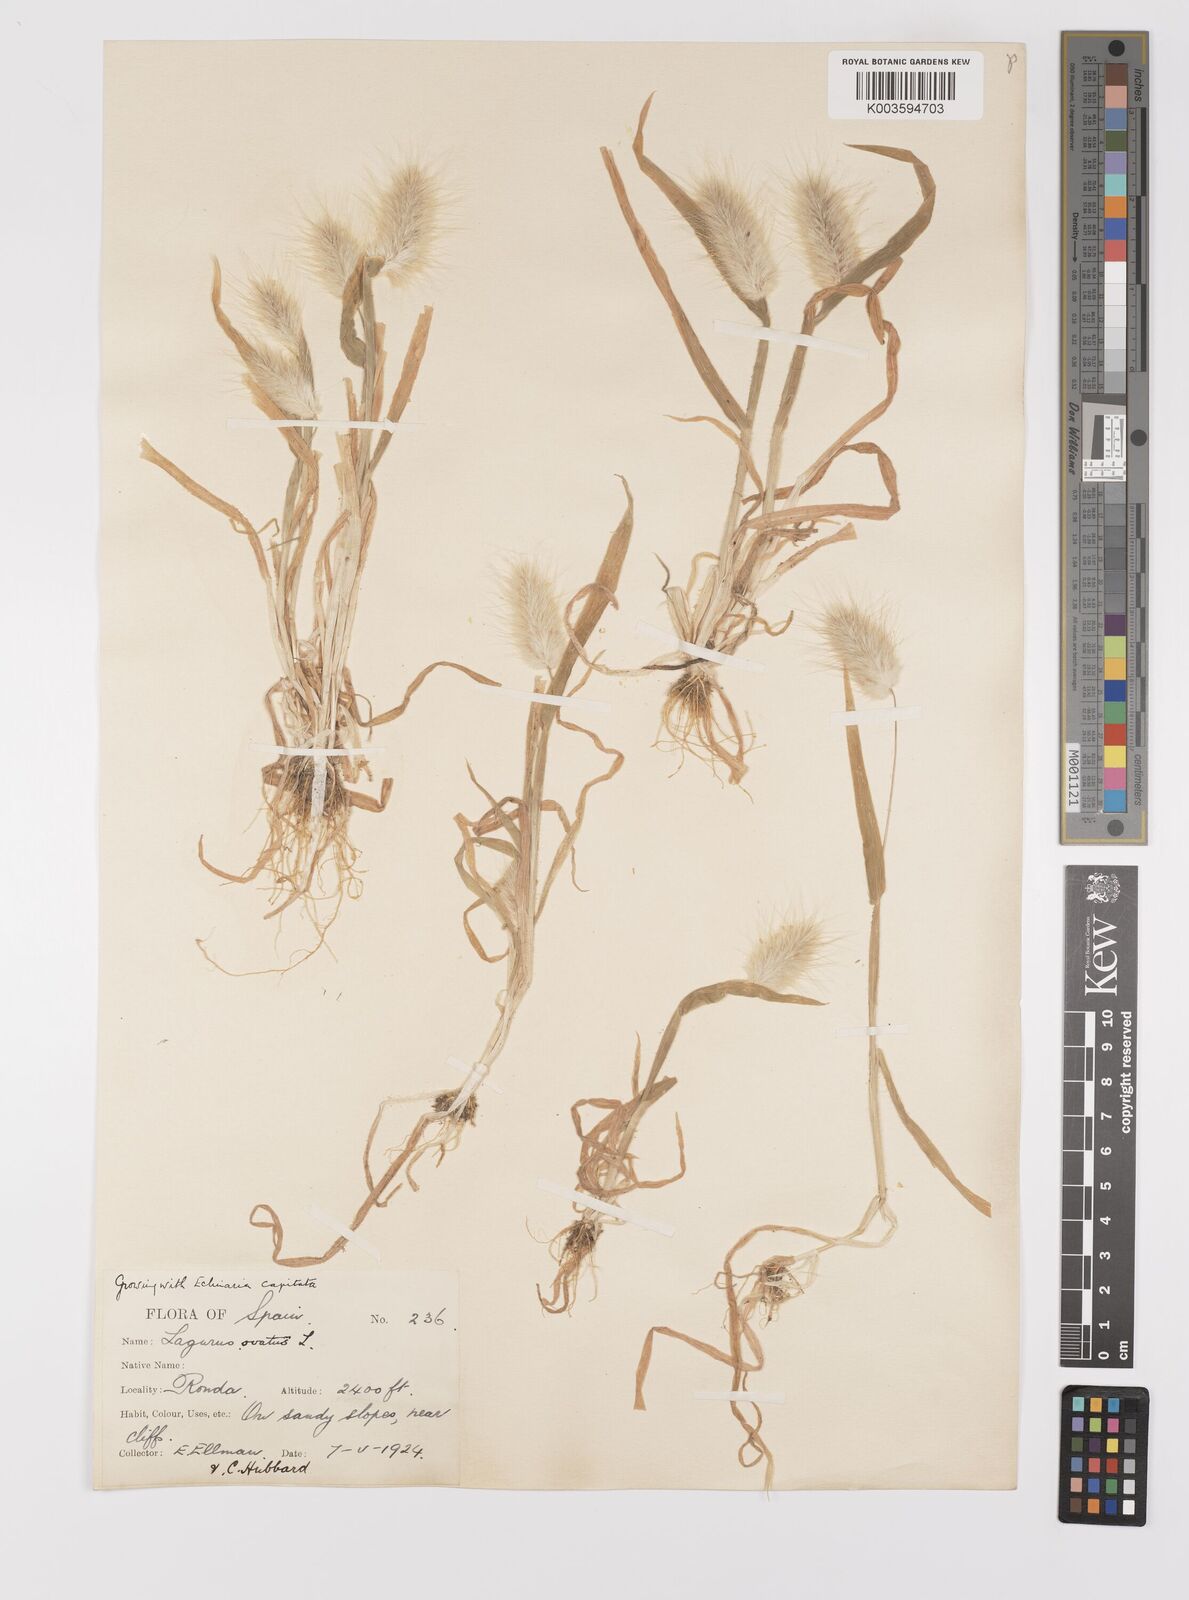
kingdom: Plantae
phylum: Tracheophyta
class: Liliopsida
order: Poales
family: Poaceae
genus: Lagurus
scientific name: Lagurus ovatus
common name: Hare's-tail
